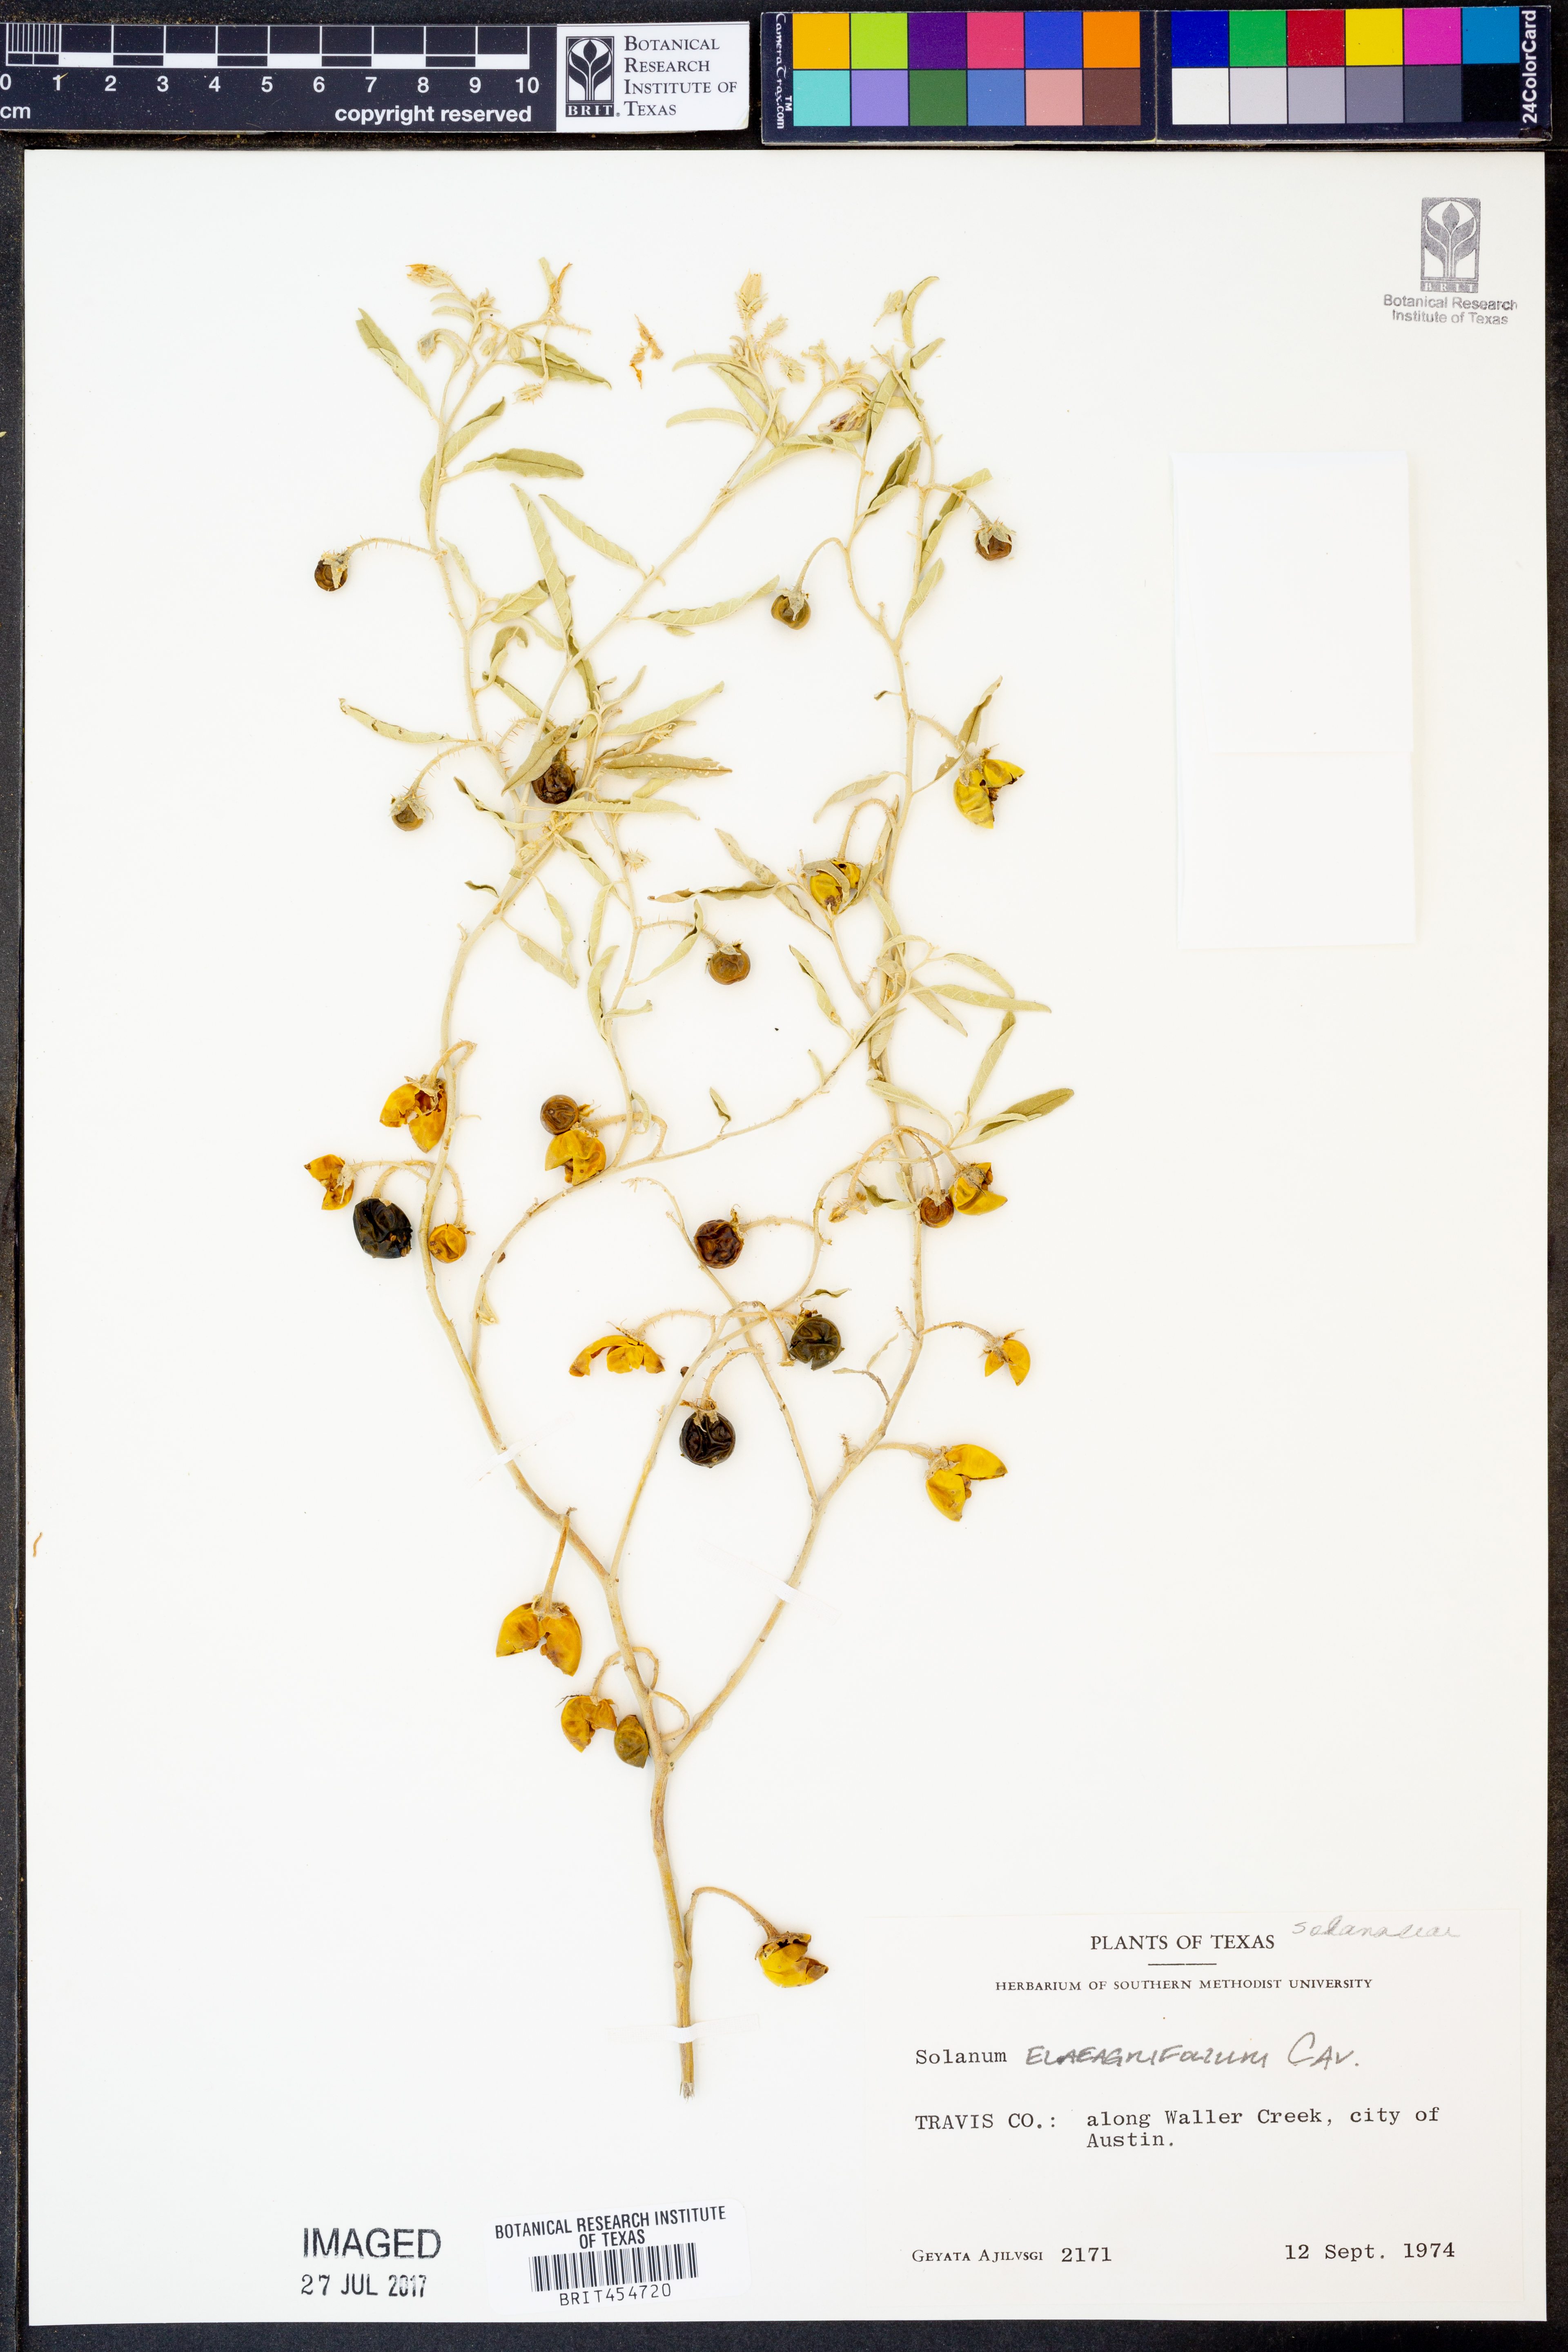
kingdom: Plantae
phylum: Tracheophyta
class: Magnoliopsida
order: Solanales
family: Solanaceae
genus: Solanum
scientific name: Solanum elaeagnifolium
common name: Silverleaf nightshade
